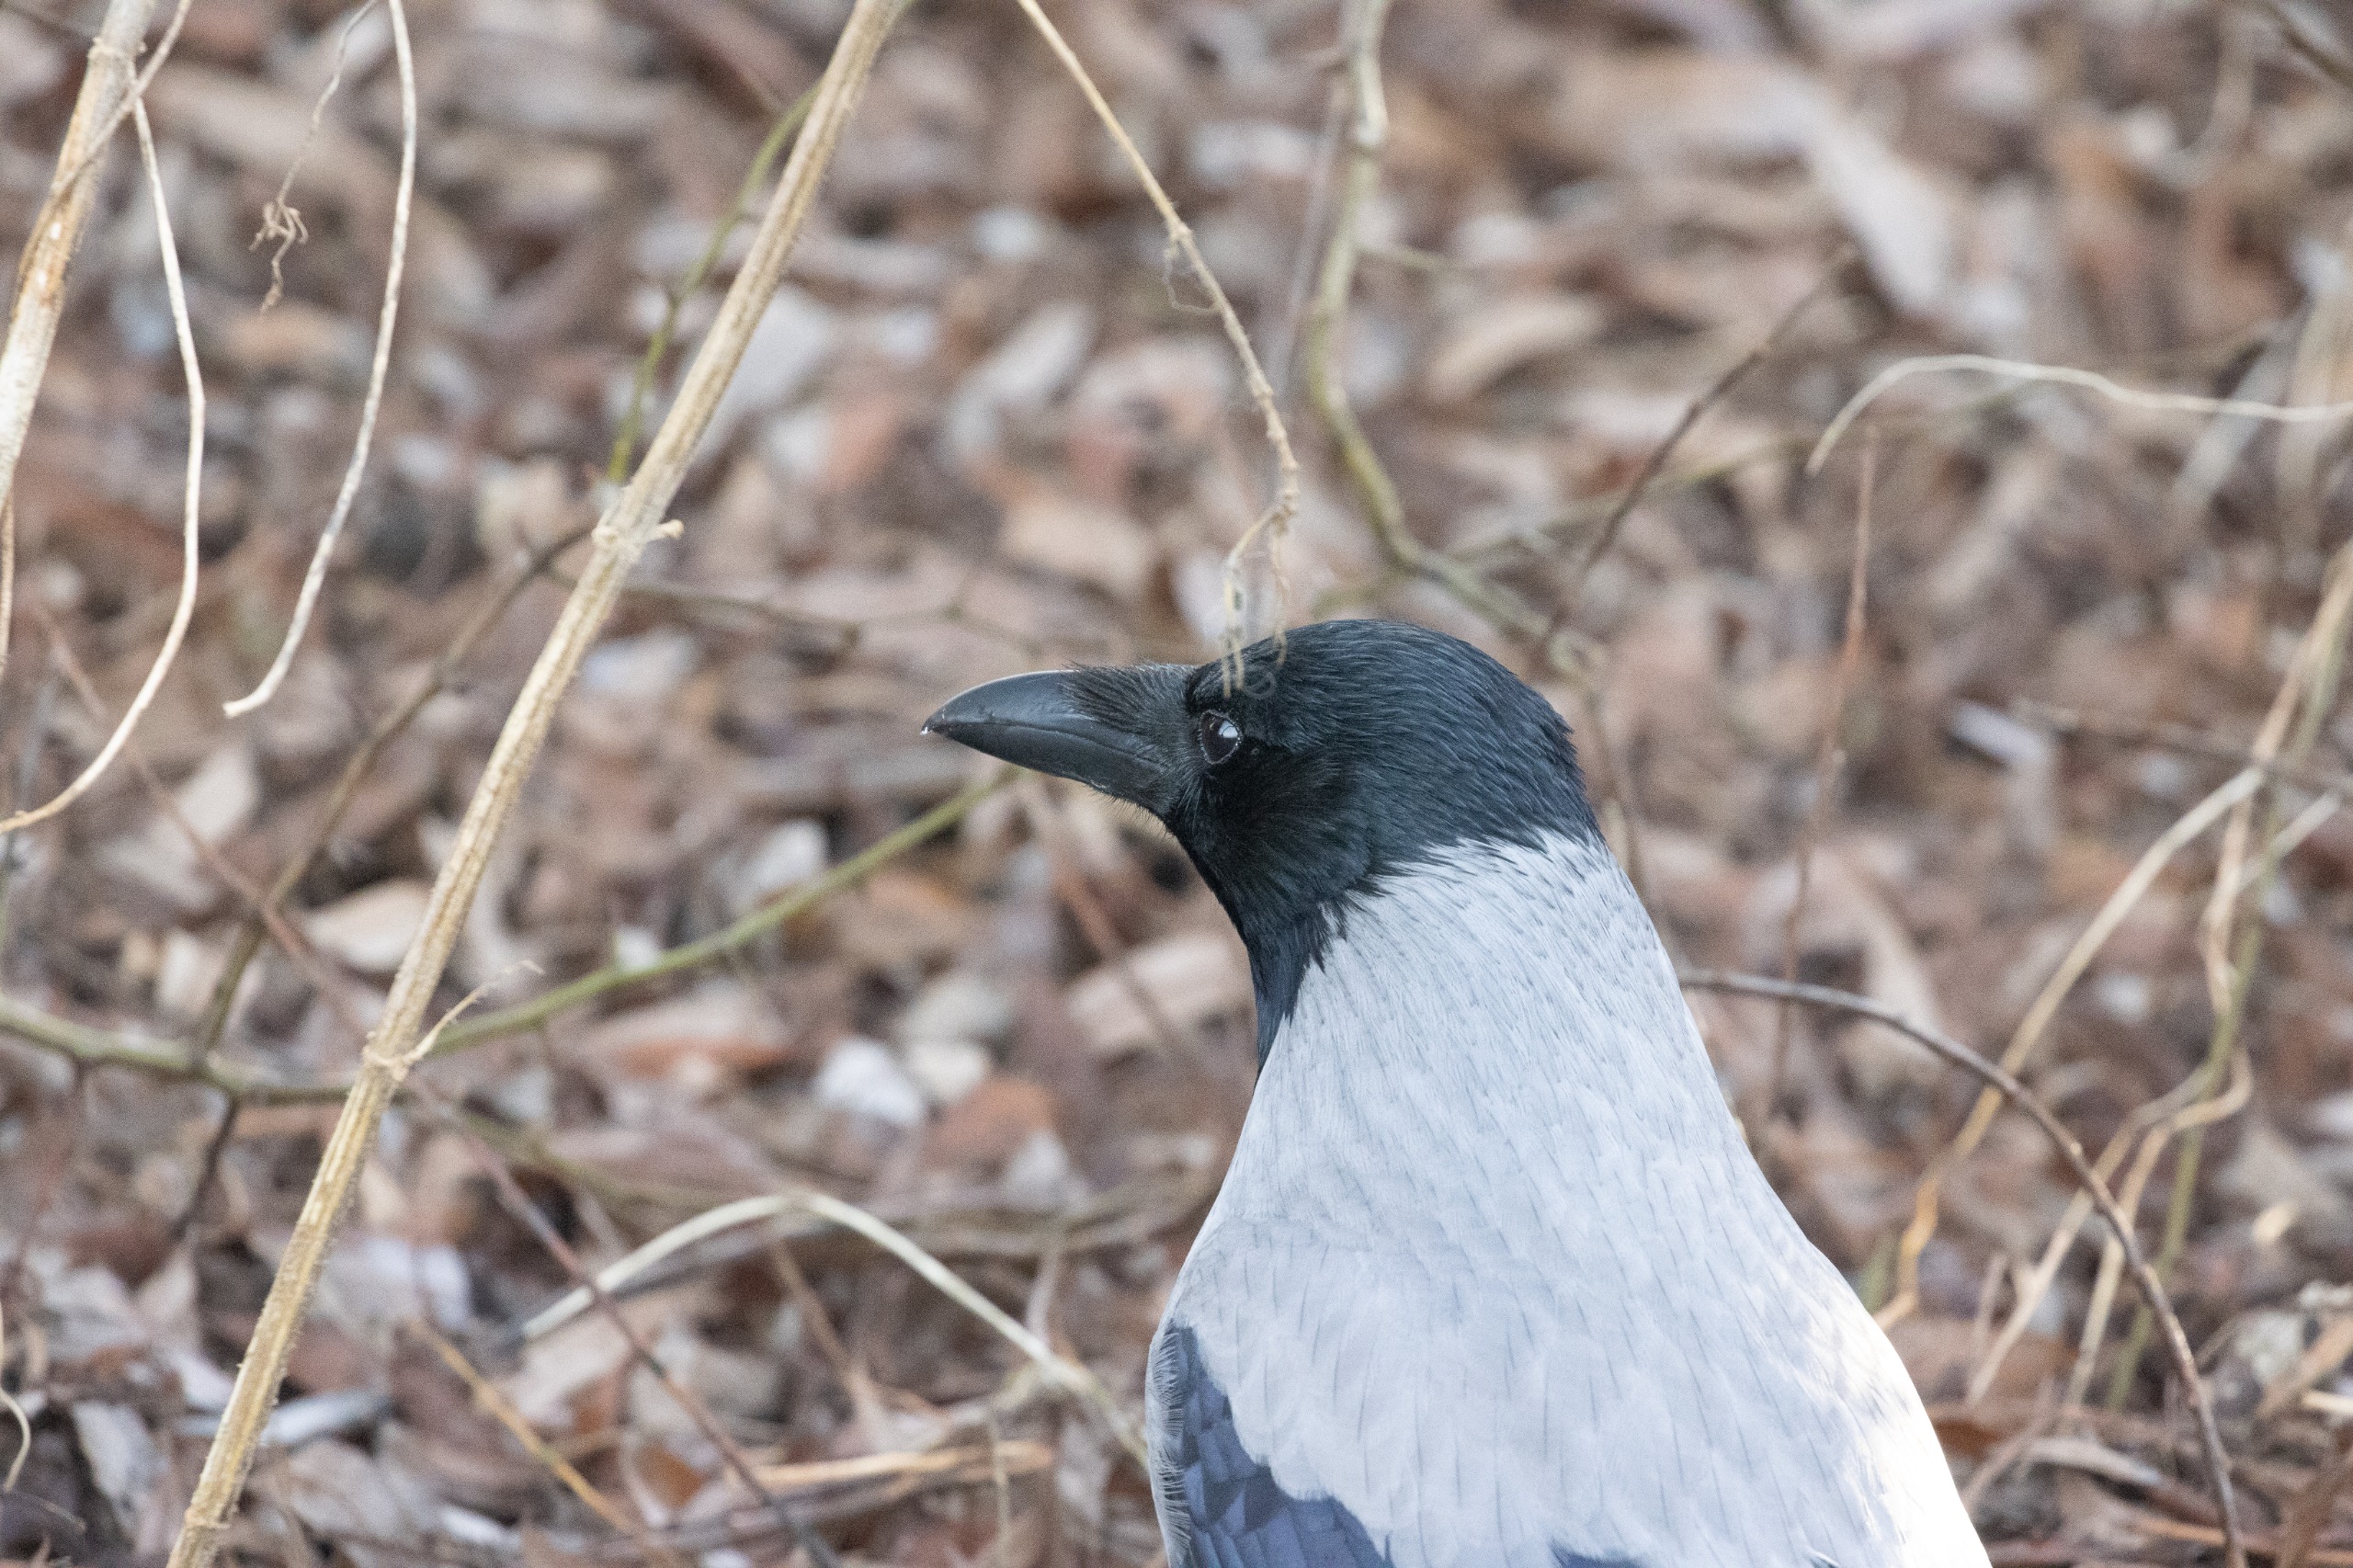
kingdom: Animalia
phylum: Chordata
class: Aves
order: Passeriformes
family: Corvidae
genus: Corvus
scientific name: Corvus cornix
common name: Gråkrage
